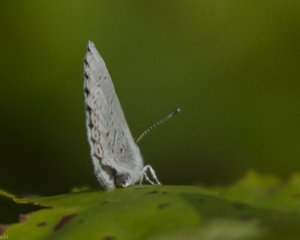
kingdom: Animalia
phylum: Arthropoda
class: Insecta
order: Lepidoptera
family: Lycaenidae
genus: Cyaniris
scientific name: Cyaniris neglecta
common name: Summer Azure
